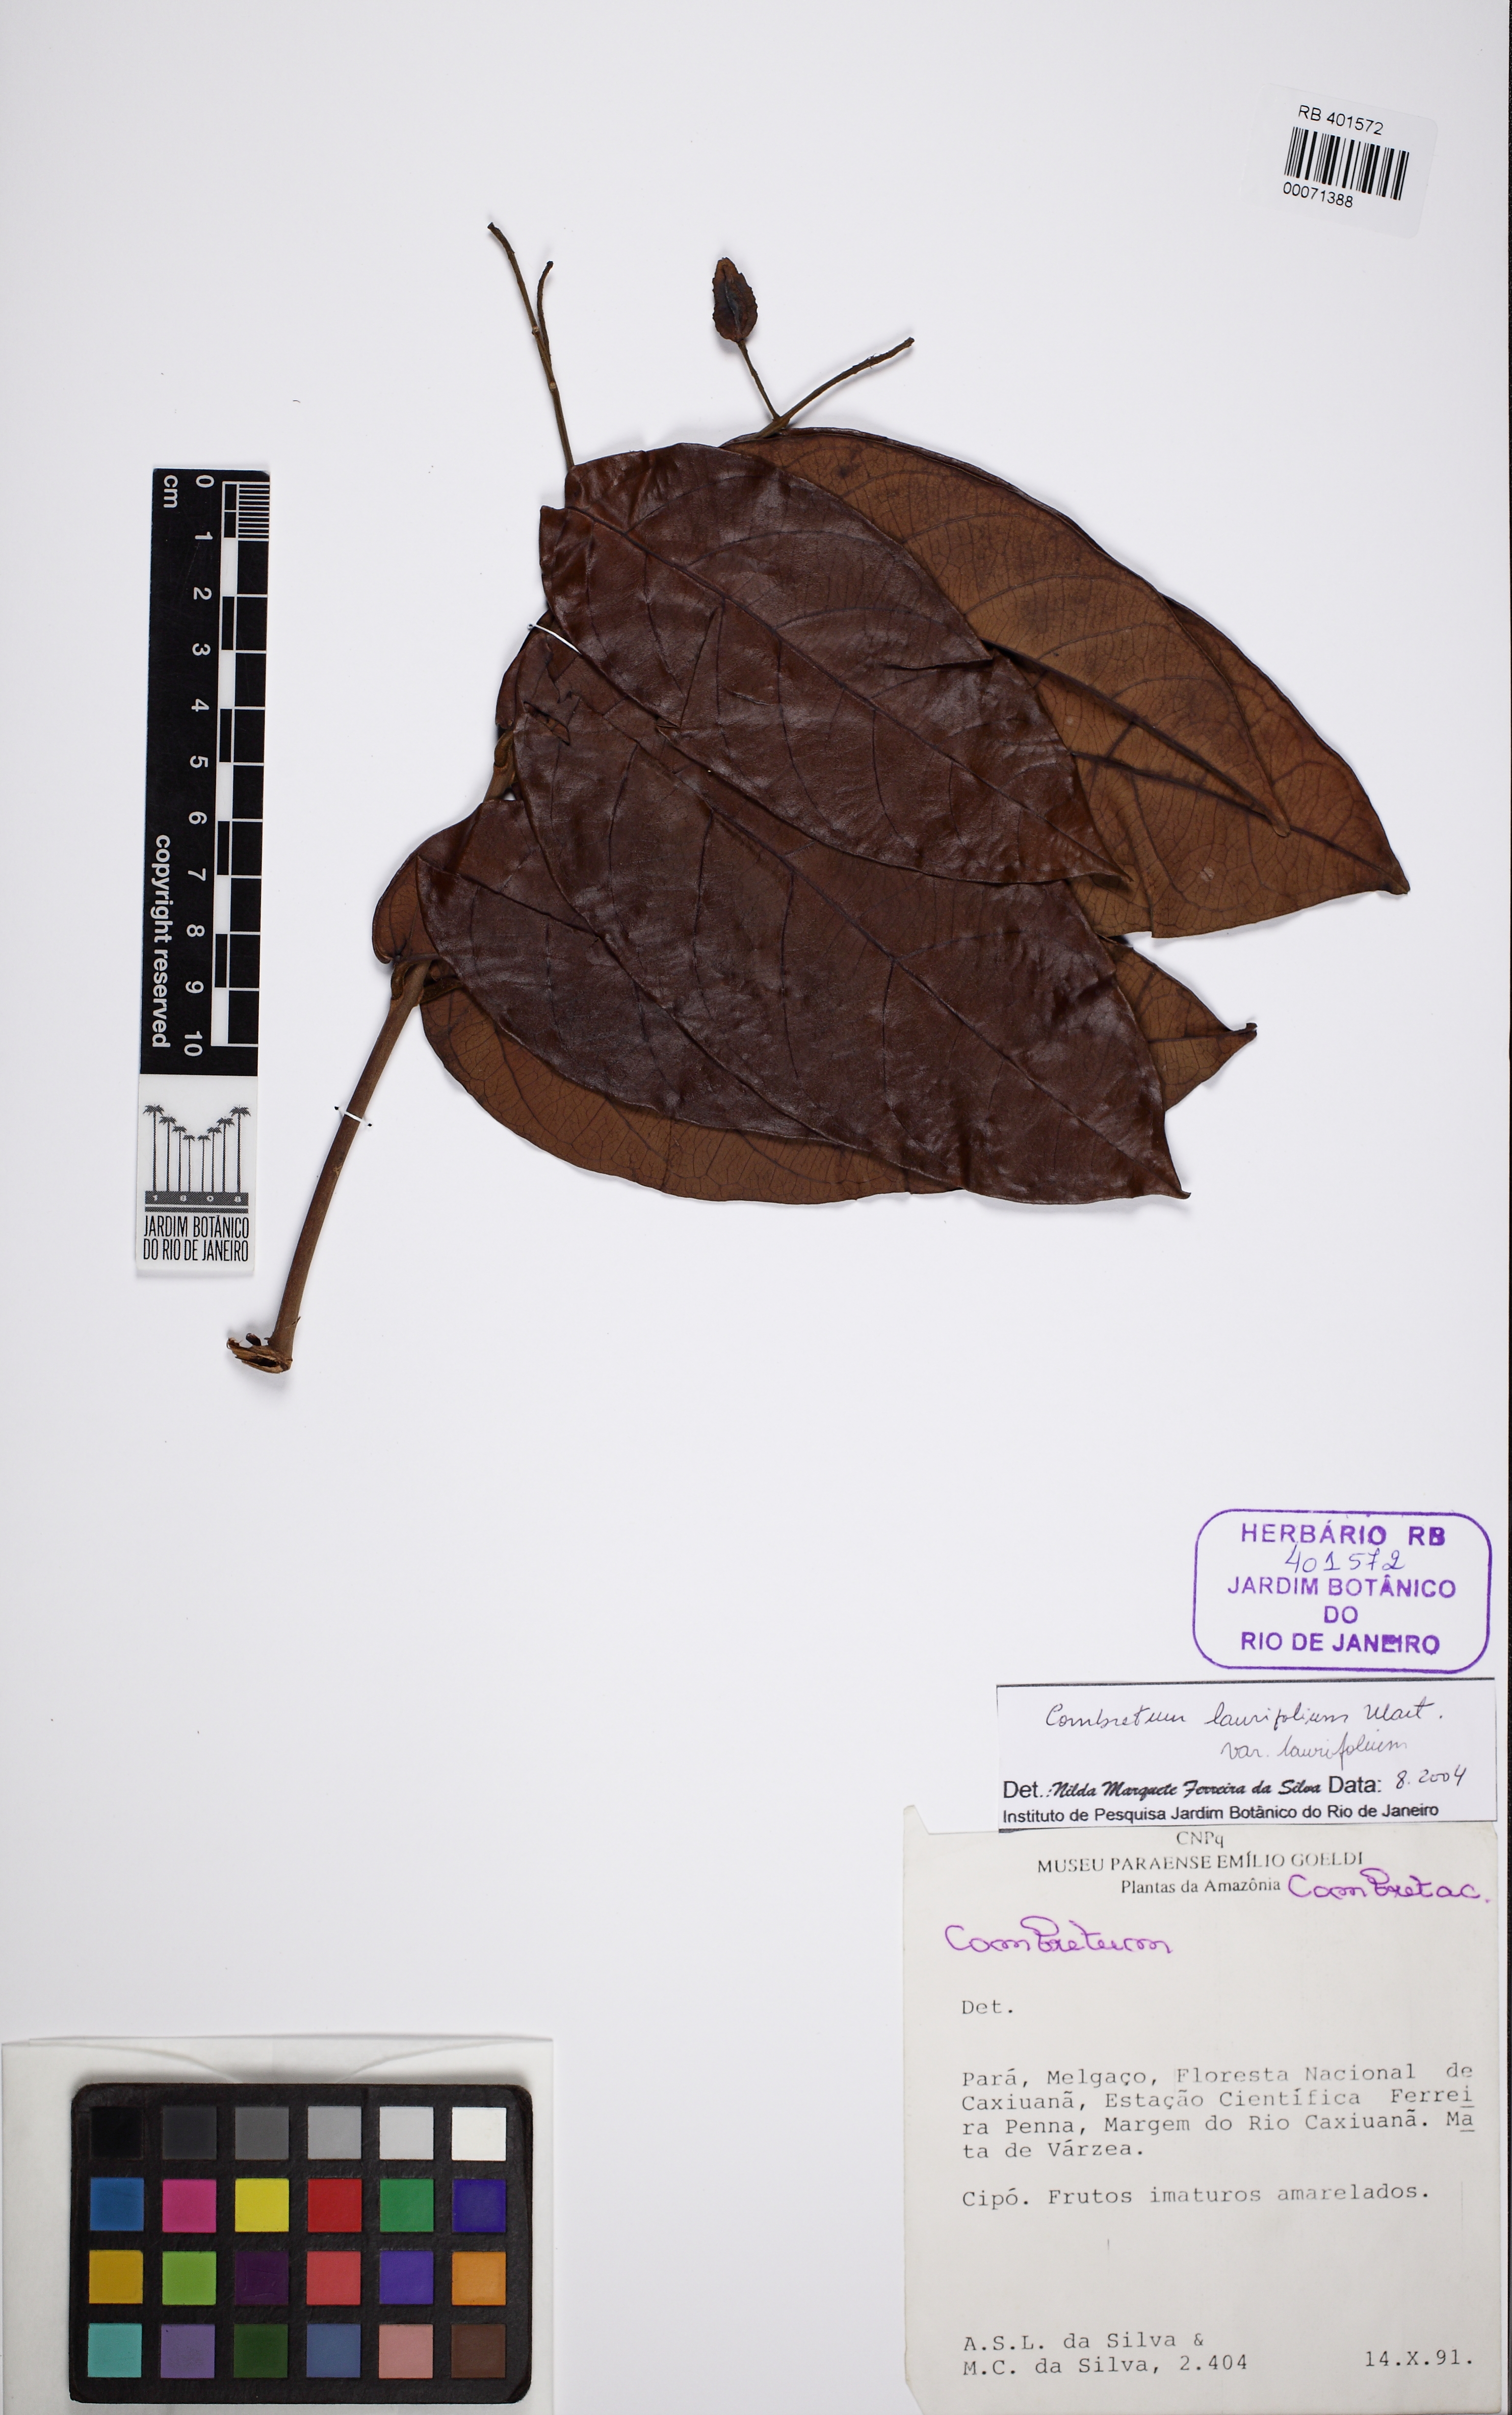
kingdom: Plantae
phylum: Tracheophyta
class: Magnoliopsida
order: Myrtales
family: Combretaceae
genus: Combretum
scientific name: Combretum laurifolium
